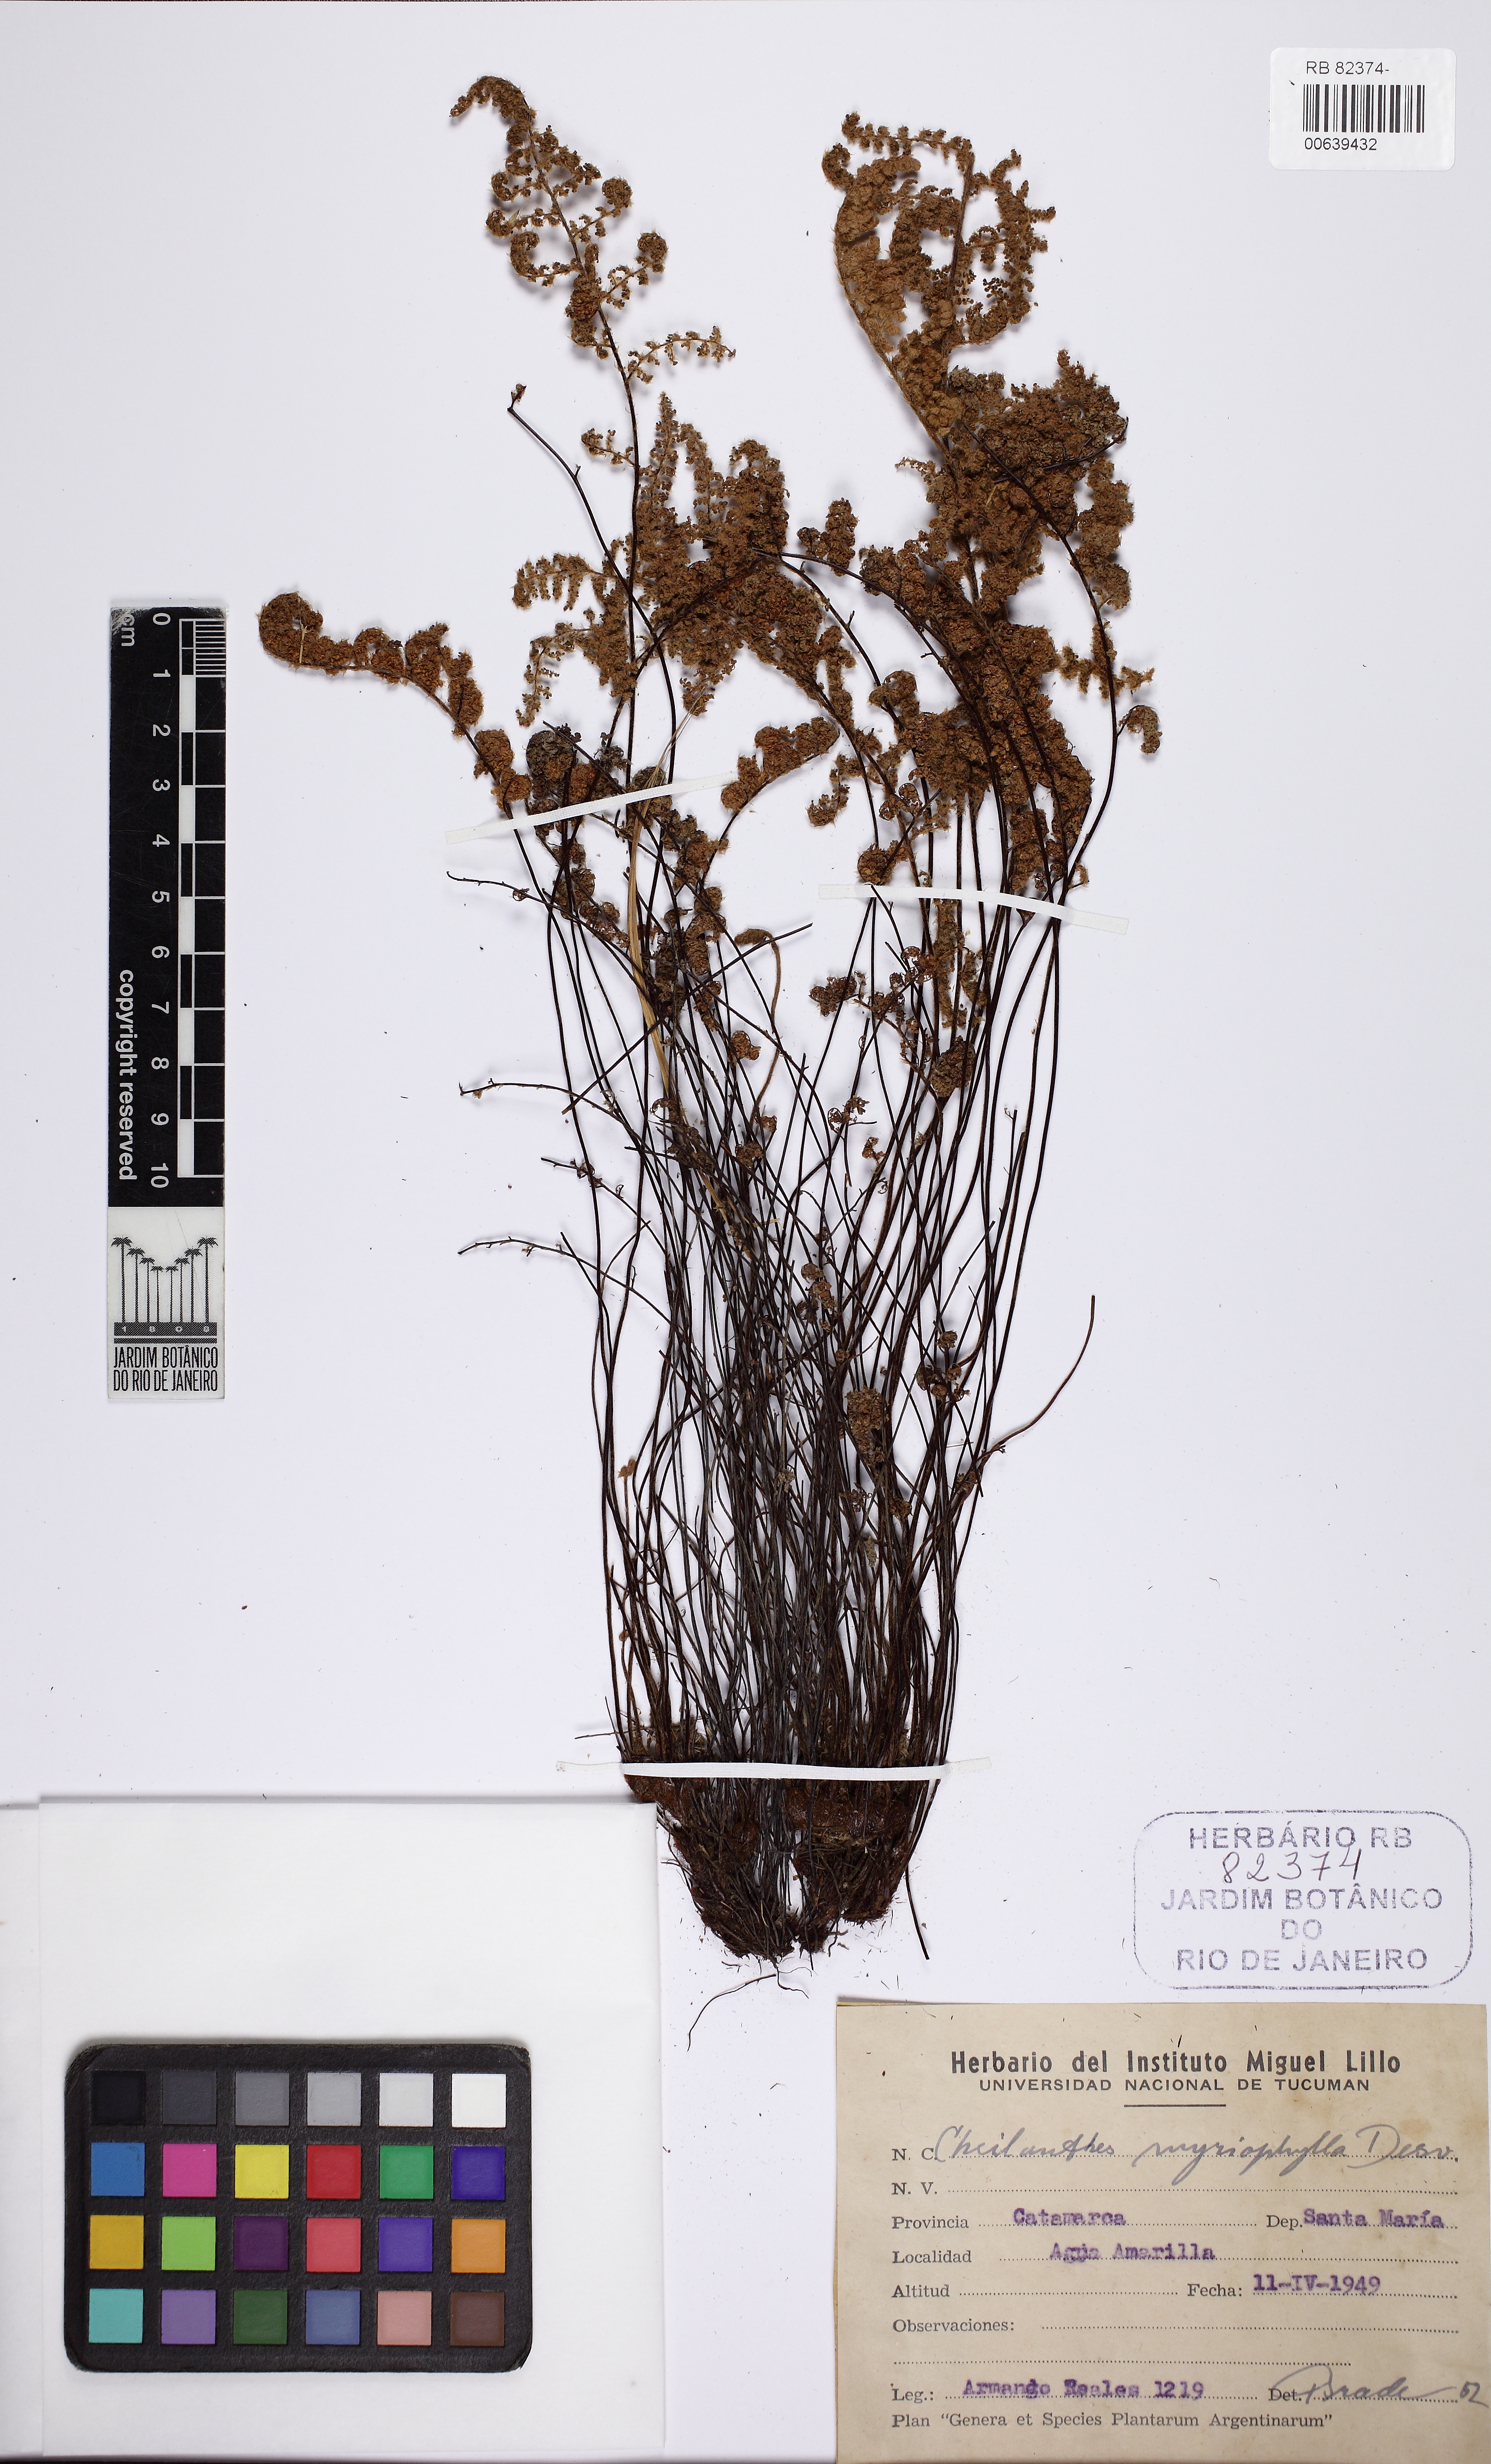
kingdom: Plantae
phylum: Tracheophyta
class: Polypodiopsida
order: Polypodiales
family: Pteridaceae
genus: Myriopteris
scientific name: Myriopteris myriophylla
